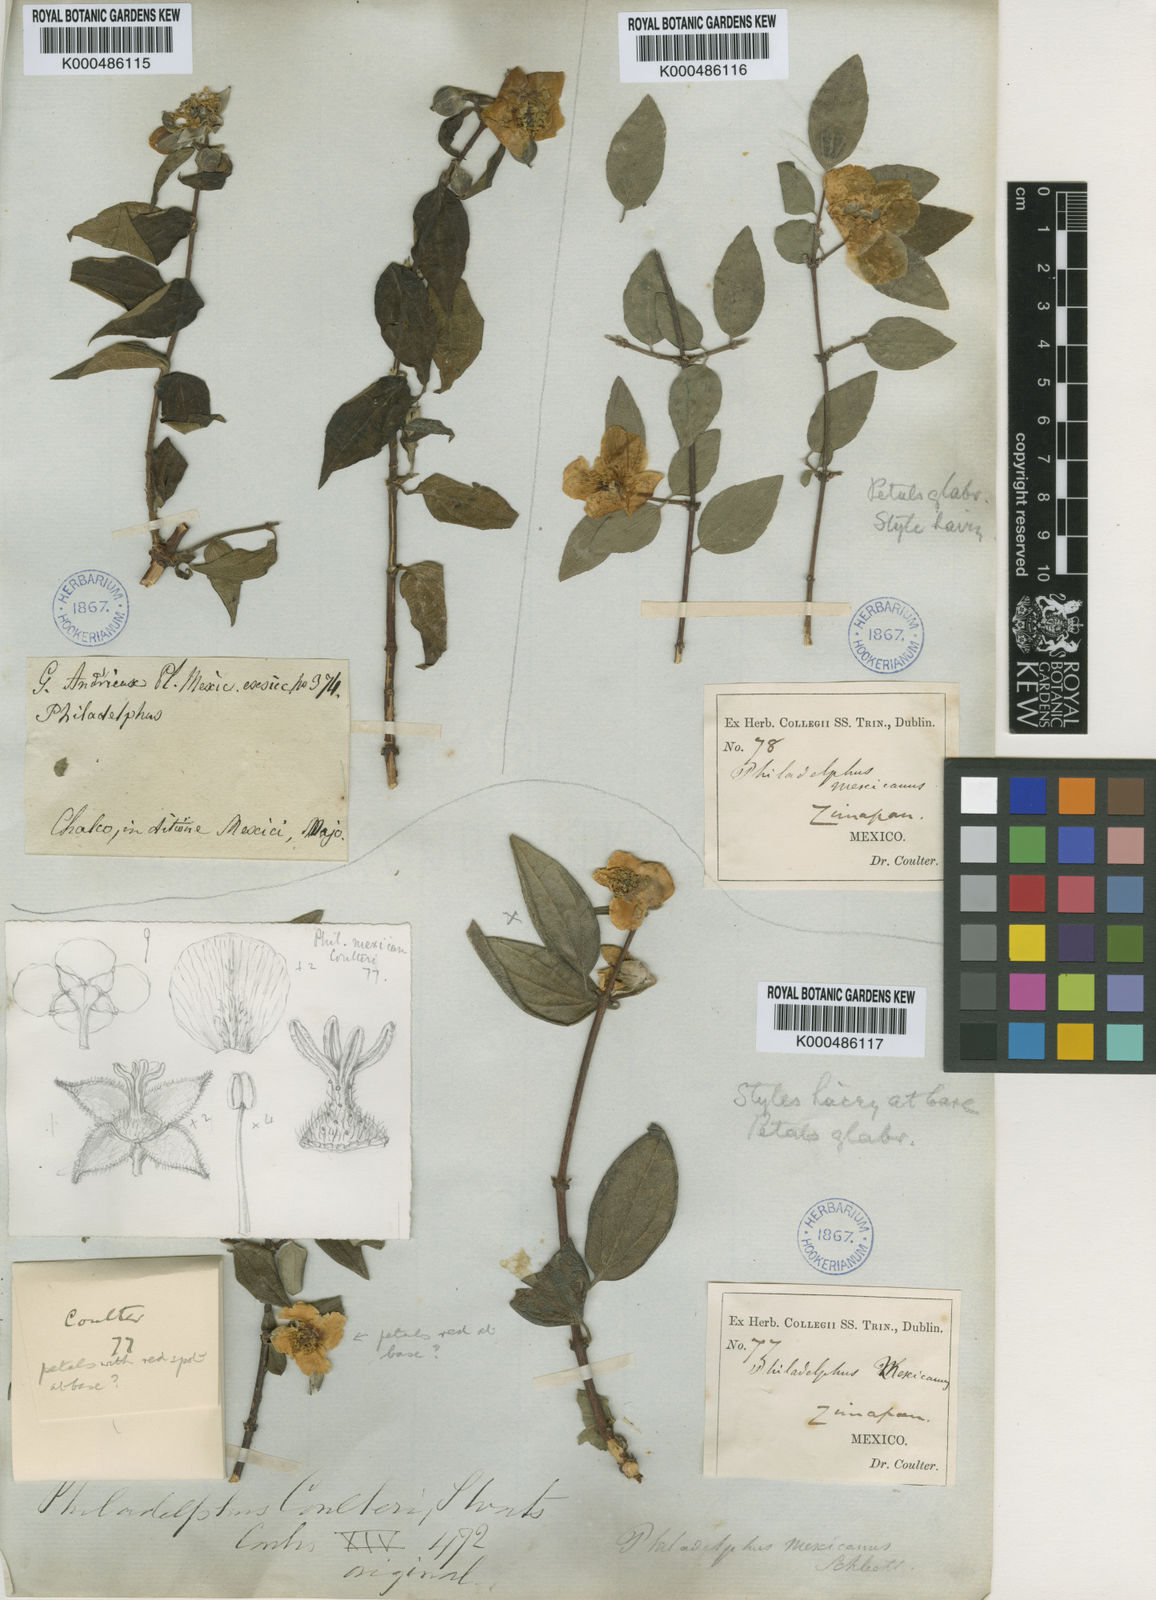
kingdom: Plantae
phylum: Tracheophyta
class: Magnoliopsida
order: Cornales
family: Hydrangeaceae
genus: Philadelphus
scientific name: Philadelphus coulteri
